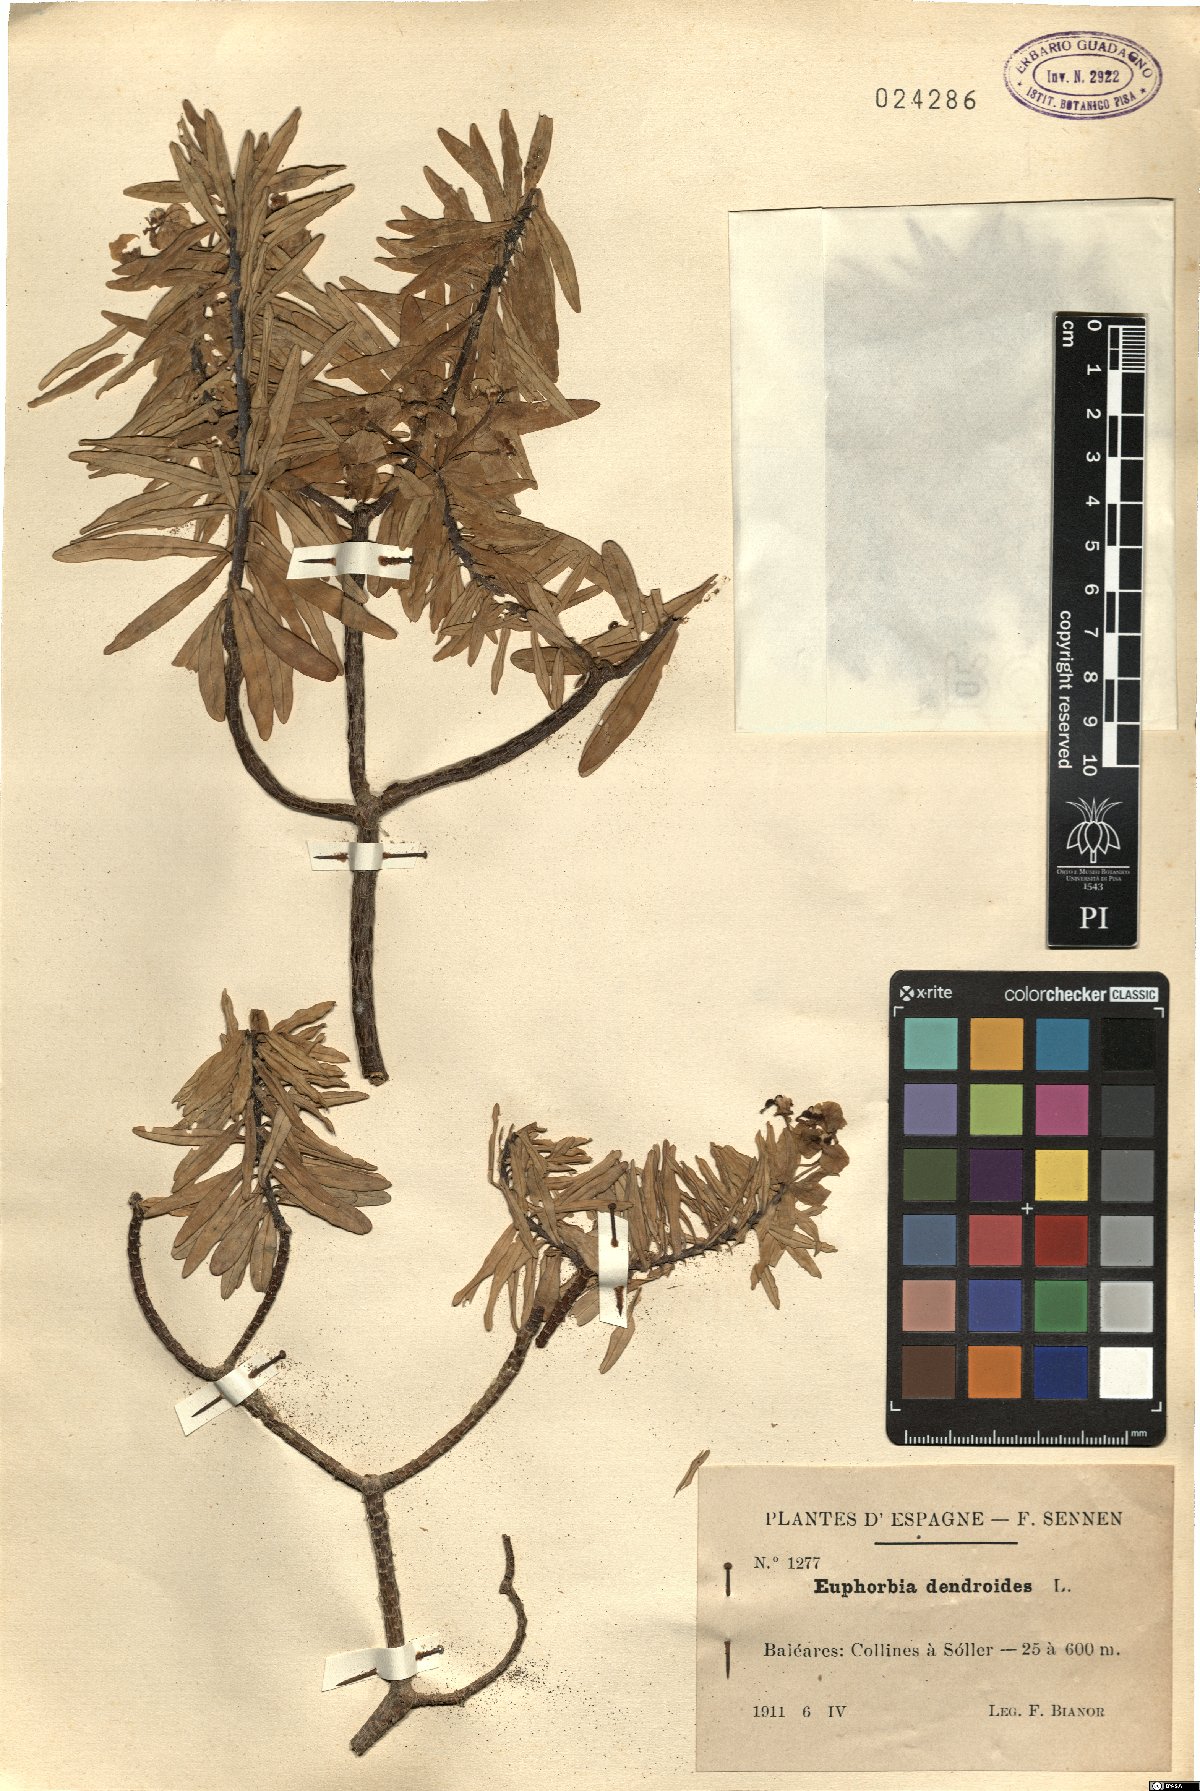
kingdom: Plantae
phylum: Tracheophyta
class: Magnoliopsida
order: Malpighiales
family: Euphorbiaceae
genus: Euphorbia
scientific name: Euphorbia dendroides
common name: Tree spurge
